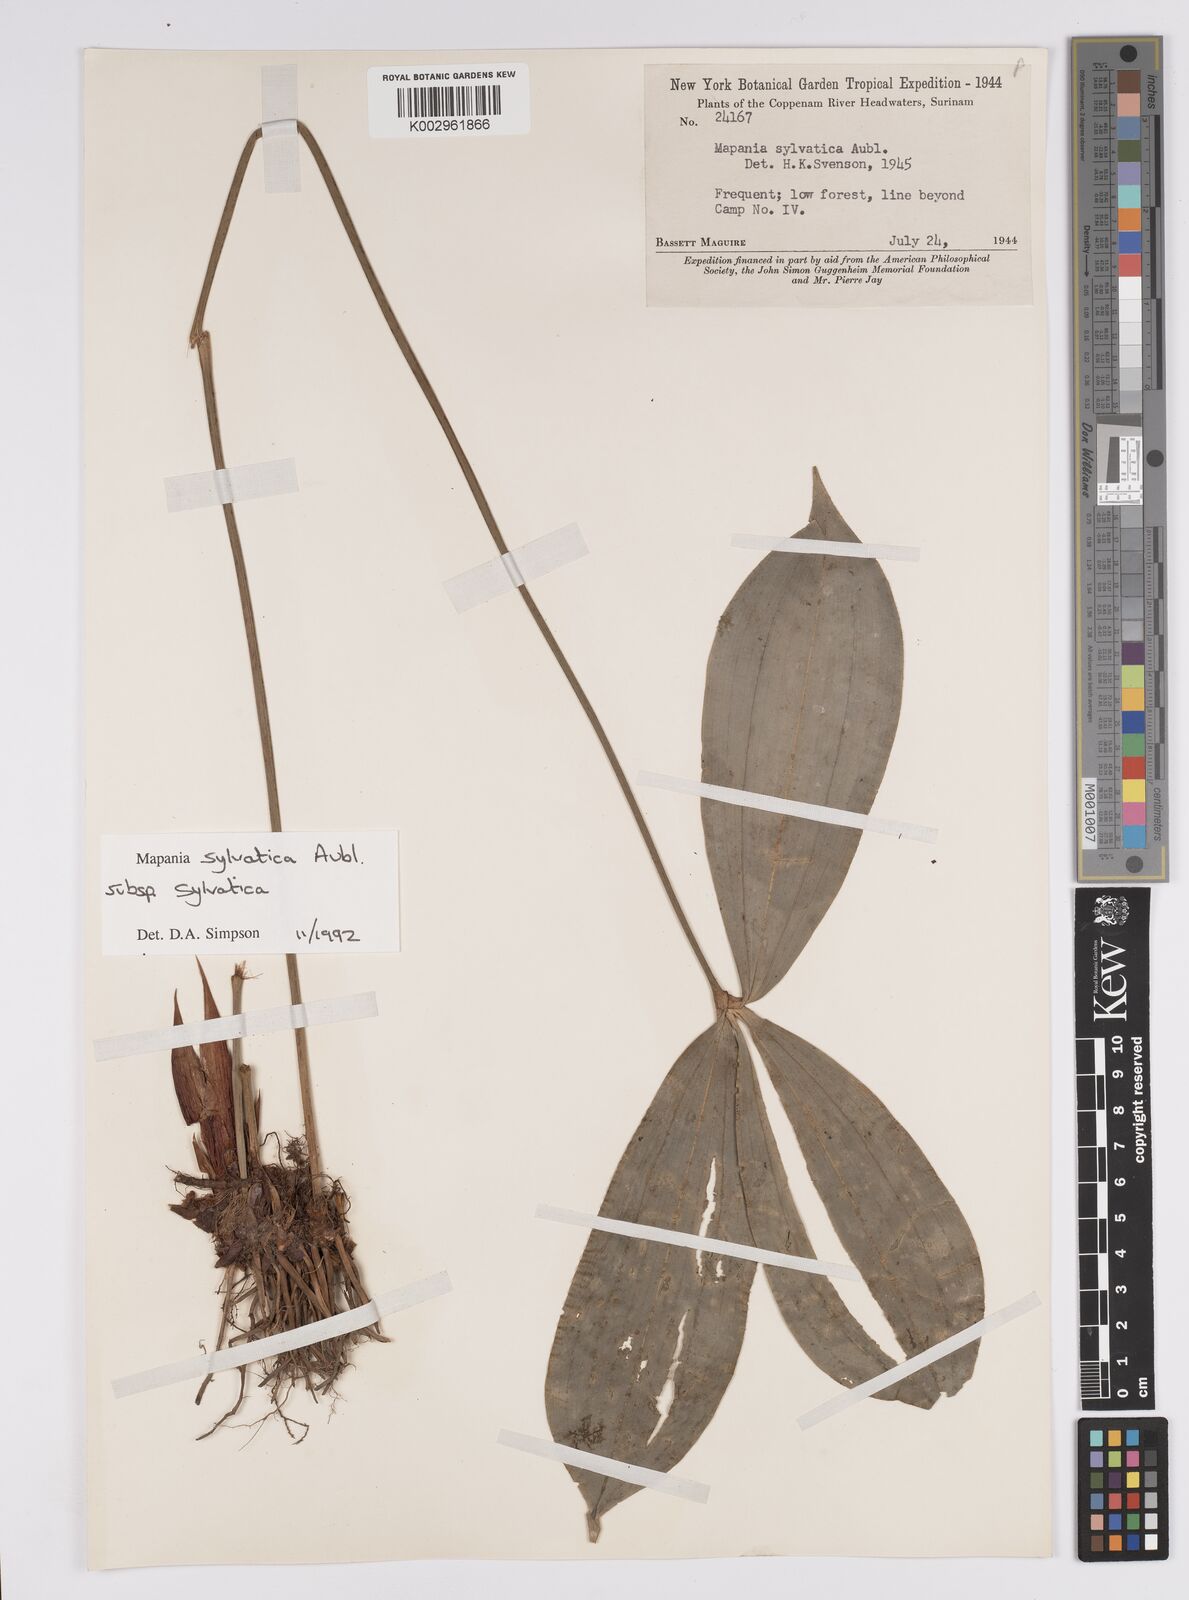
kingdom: Plantae
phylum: Tracheophyta
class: Liliopsida
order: Poales
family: Cyperaceae
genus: Mapania
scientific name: Mapania sylvatica
